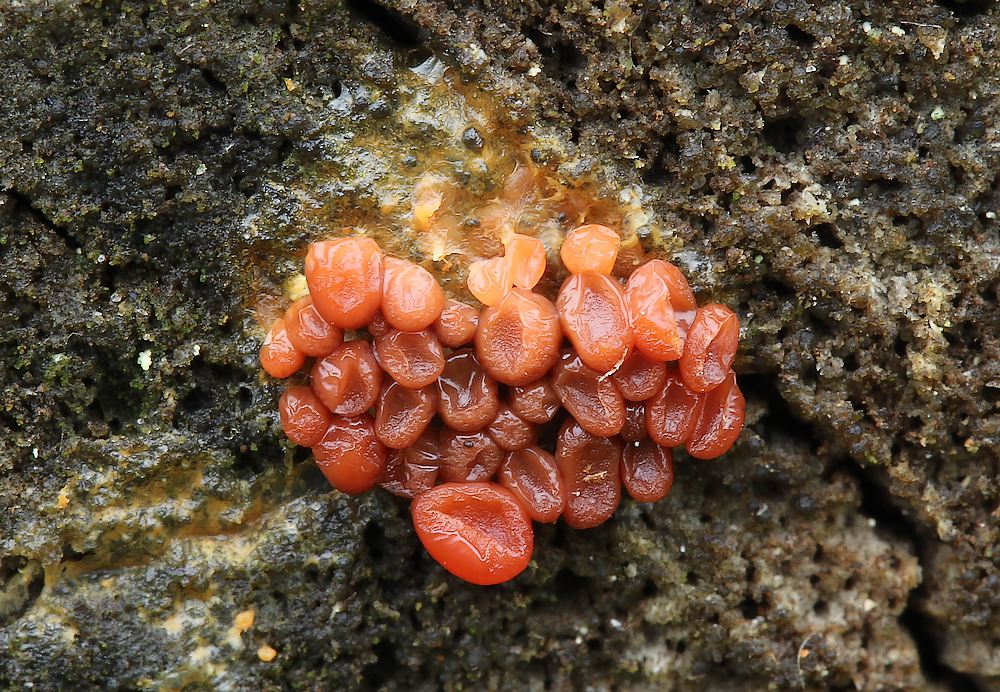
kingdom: Protozoa
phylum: Mycetozoa
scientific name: Mycetozoa
